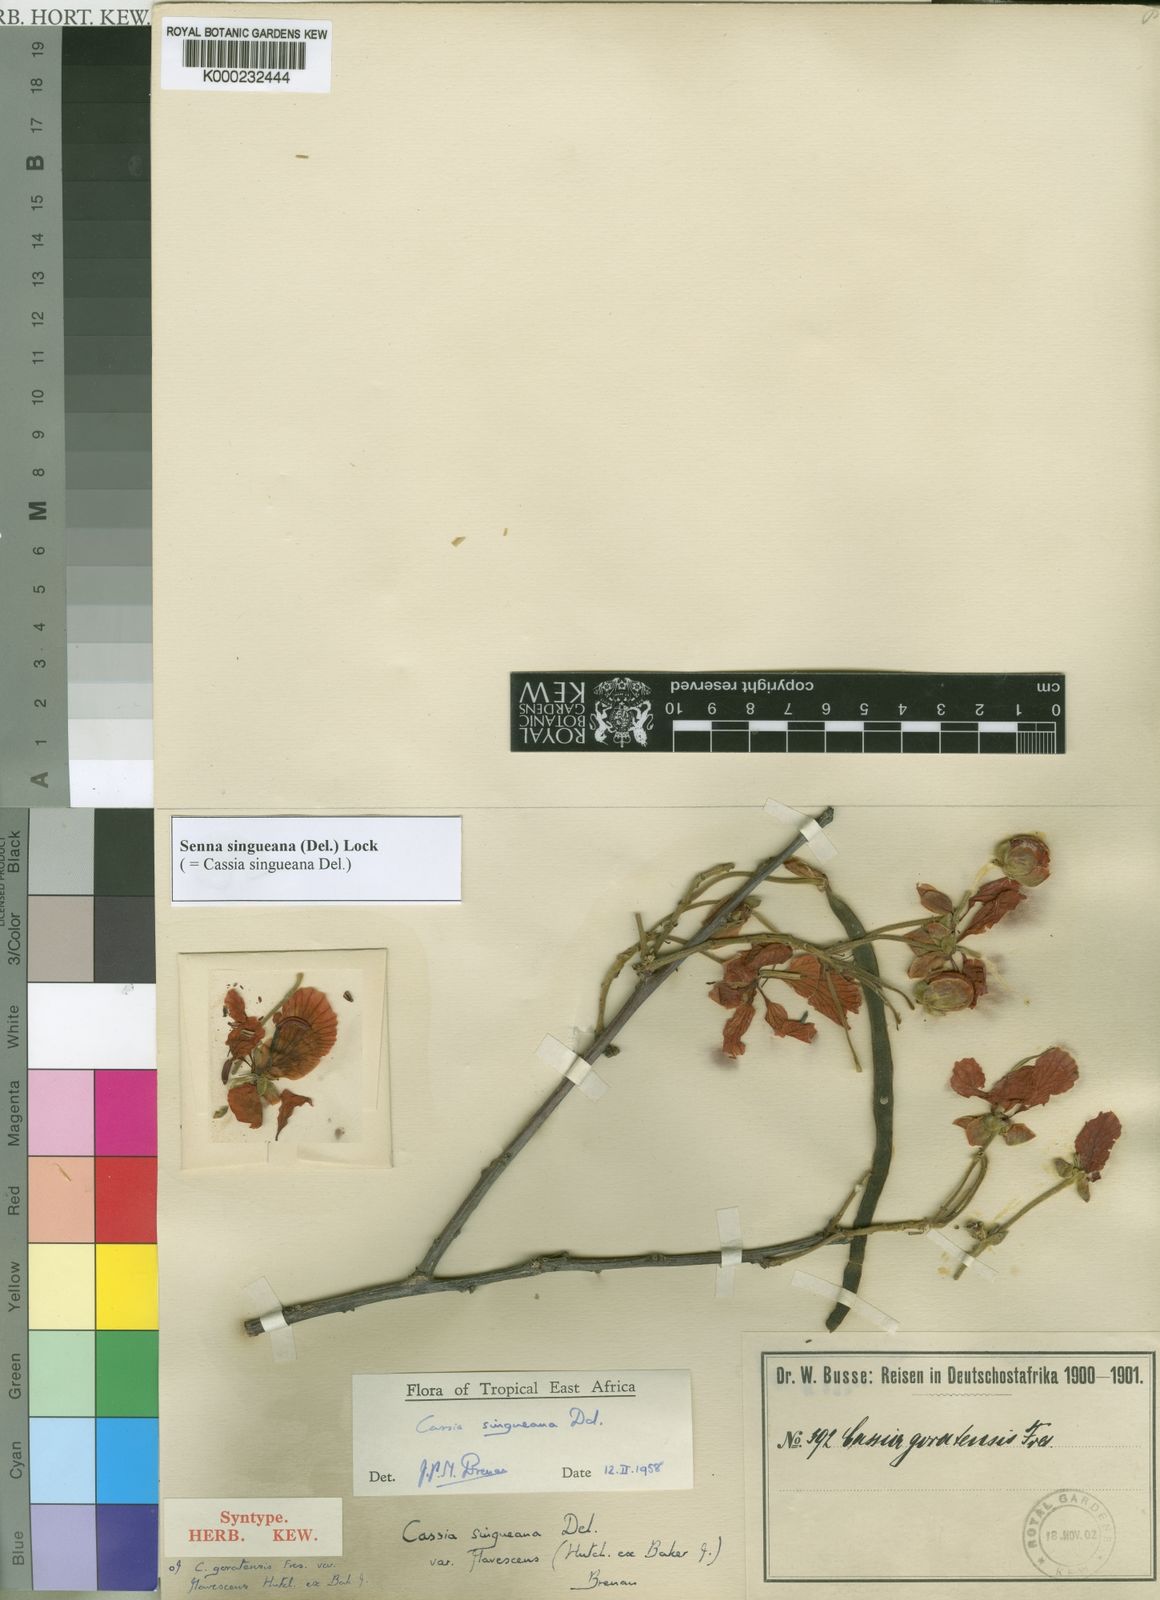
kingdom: Plantae
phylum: Tracheophyta
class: Magnoliopsida
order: Fabales
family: Fabaceae
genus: Senna
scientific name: Senna singueana
